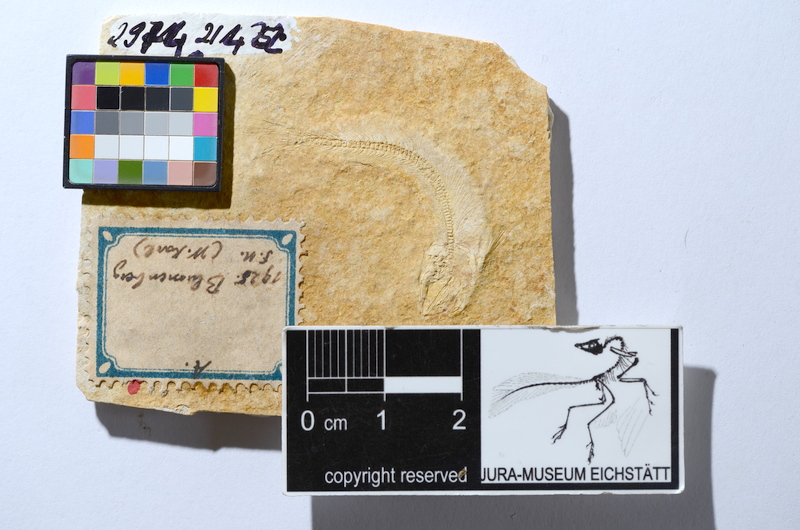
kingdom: Animalia
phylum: Chordata
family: Allothrissopidae
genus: Allothrissops
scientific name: Allothrissops mesogaster
